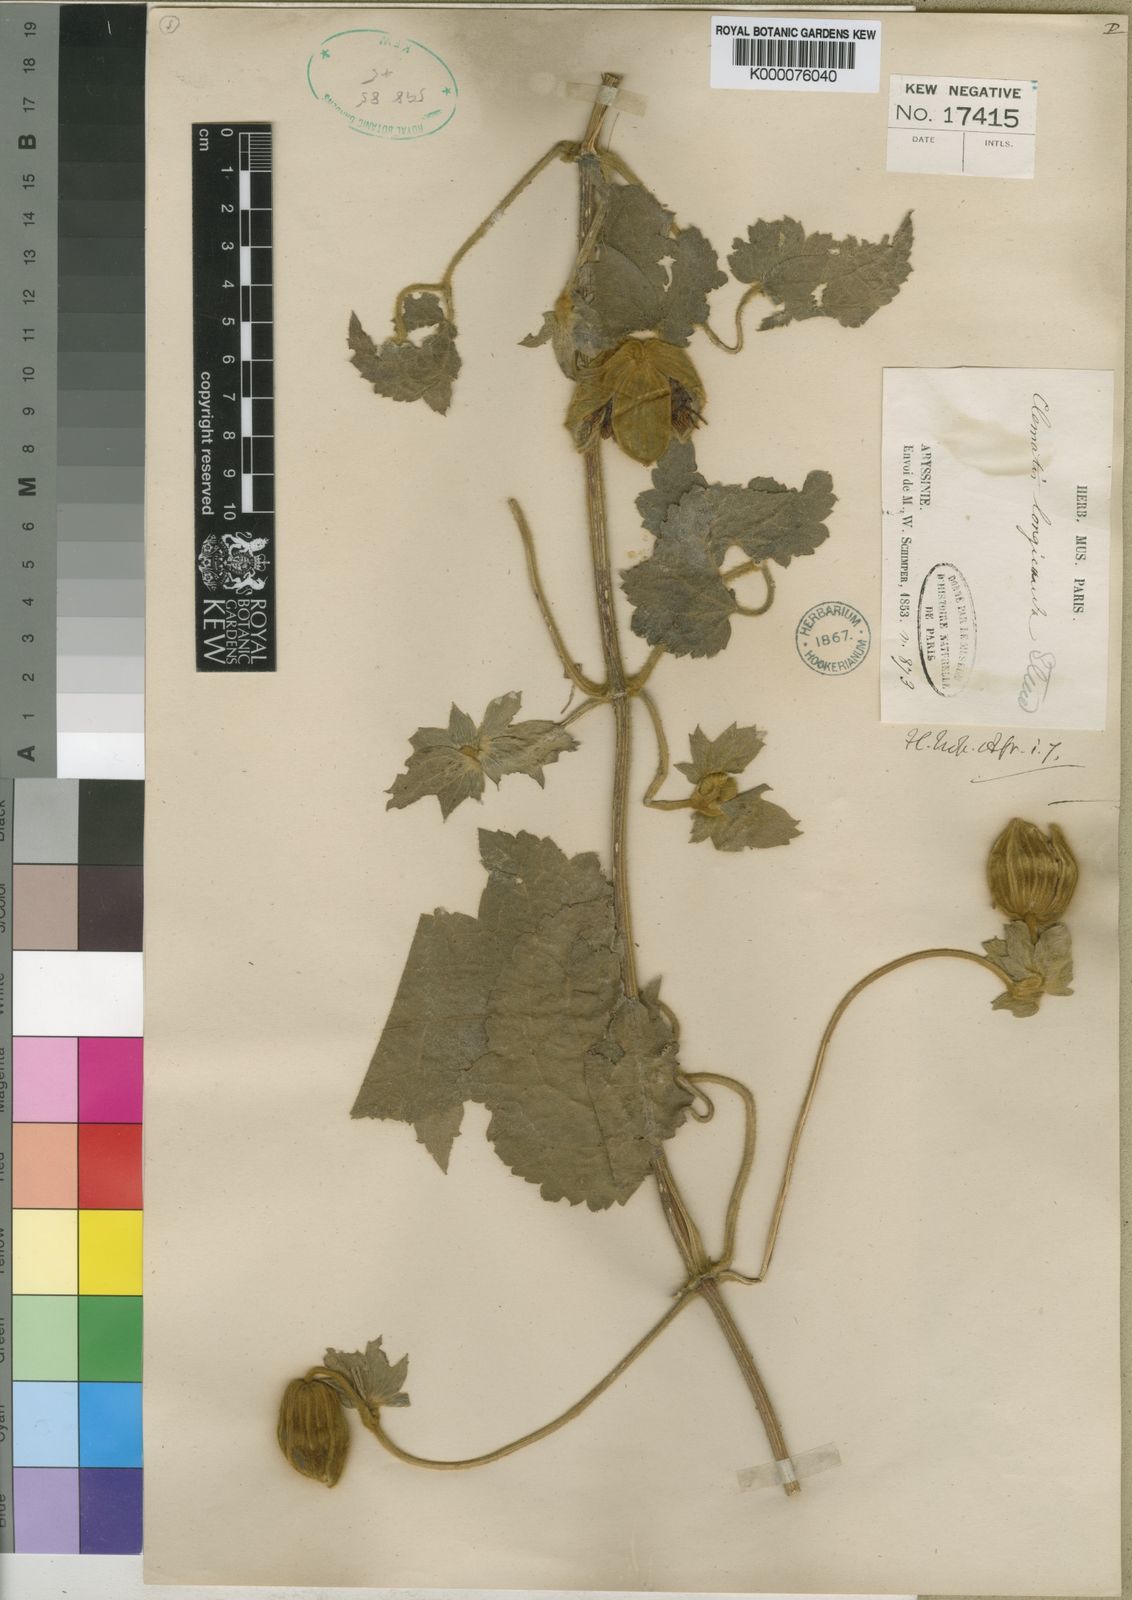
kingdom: Plantae
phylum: Tracheophyta
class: Magnoliopsida
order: Ranunculales
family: Ranunculaceae
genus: Clematis
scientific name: Clematis grandiflora
